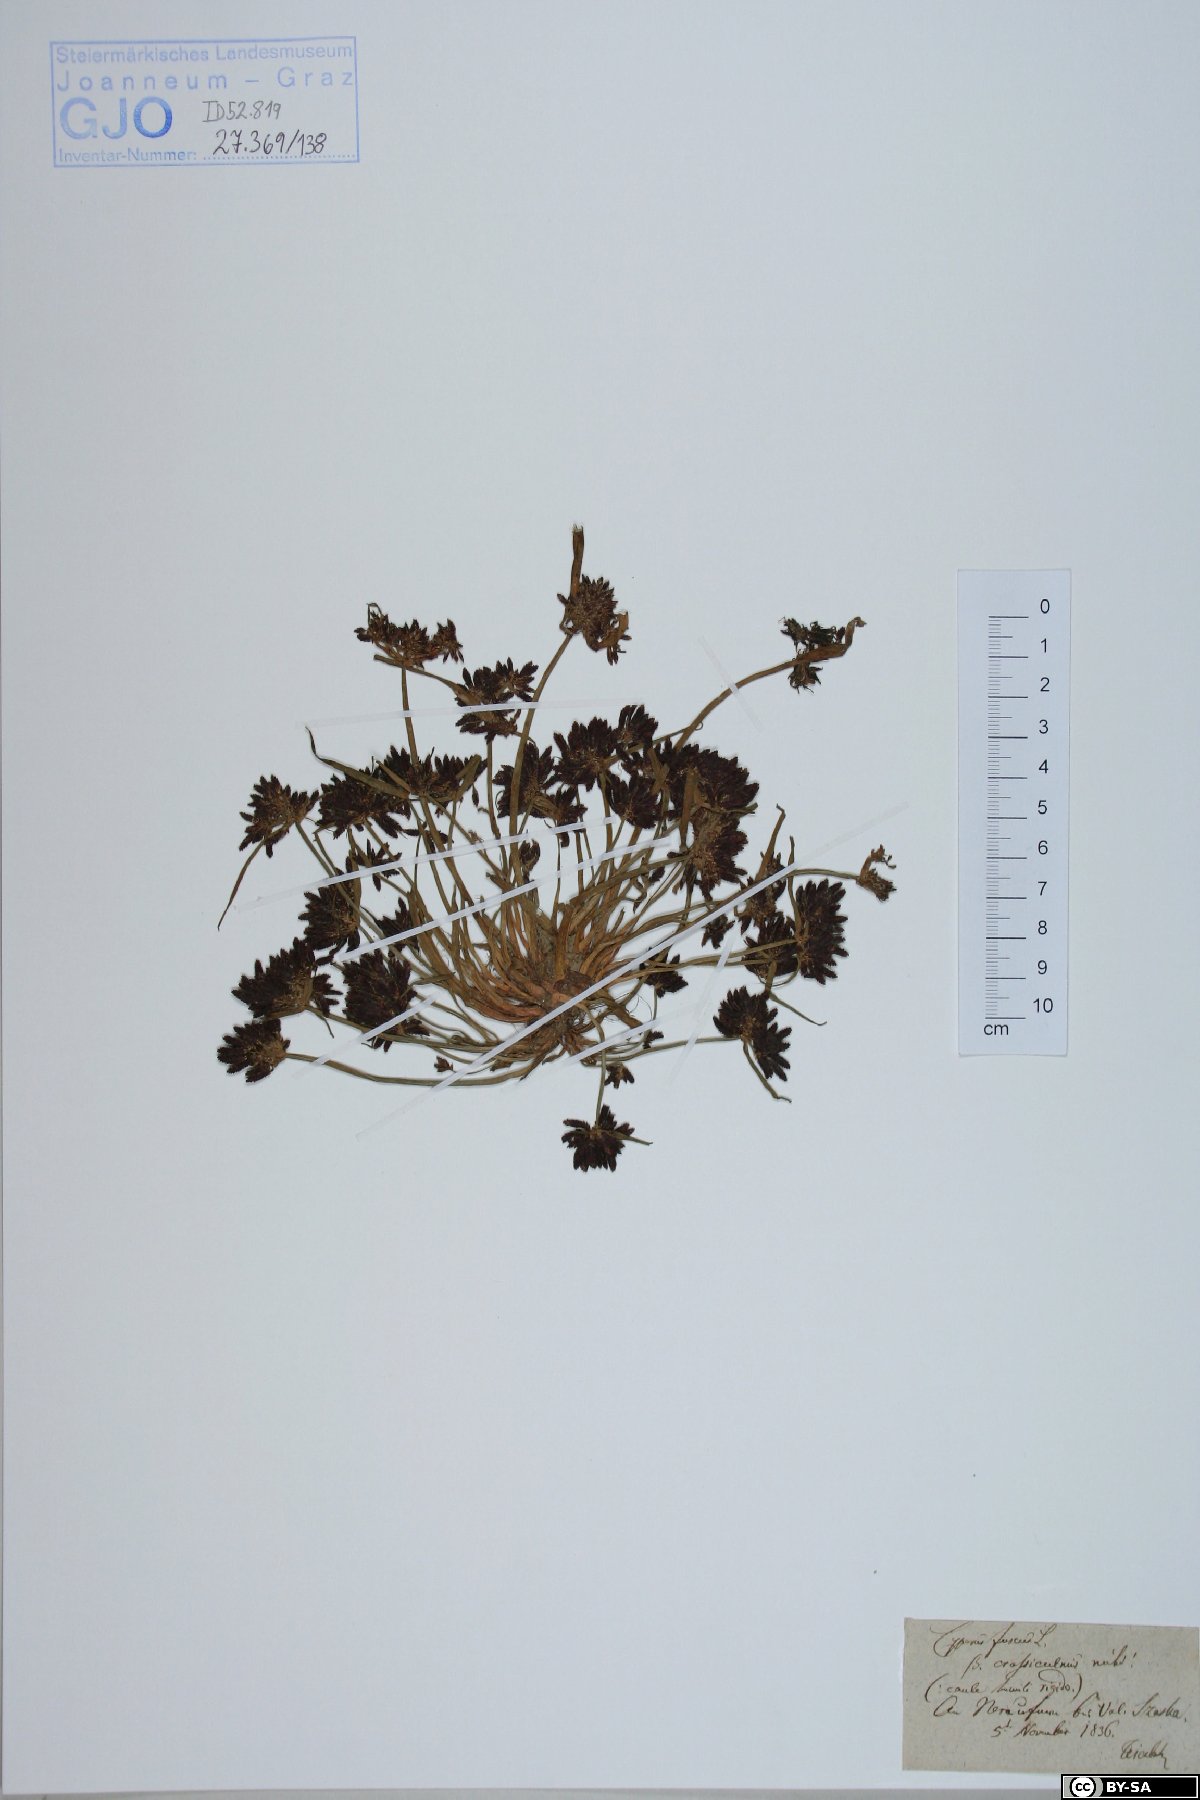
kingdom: Plantae
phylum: Tracheophyta
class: Liliopsida
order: Poales
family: Cyperaceae
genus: Cyperus
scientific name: Cyperus fuscus
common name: Brown galingale
